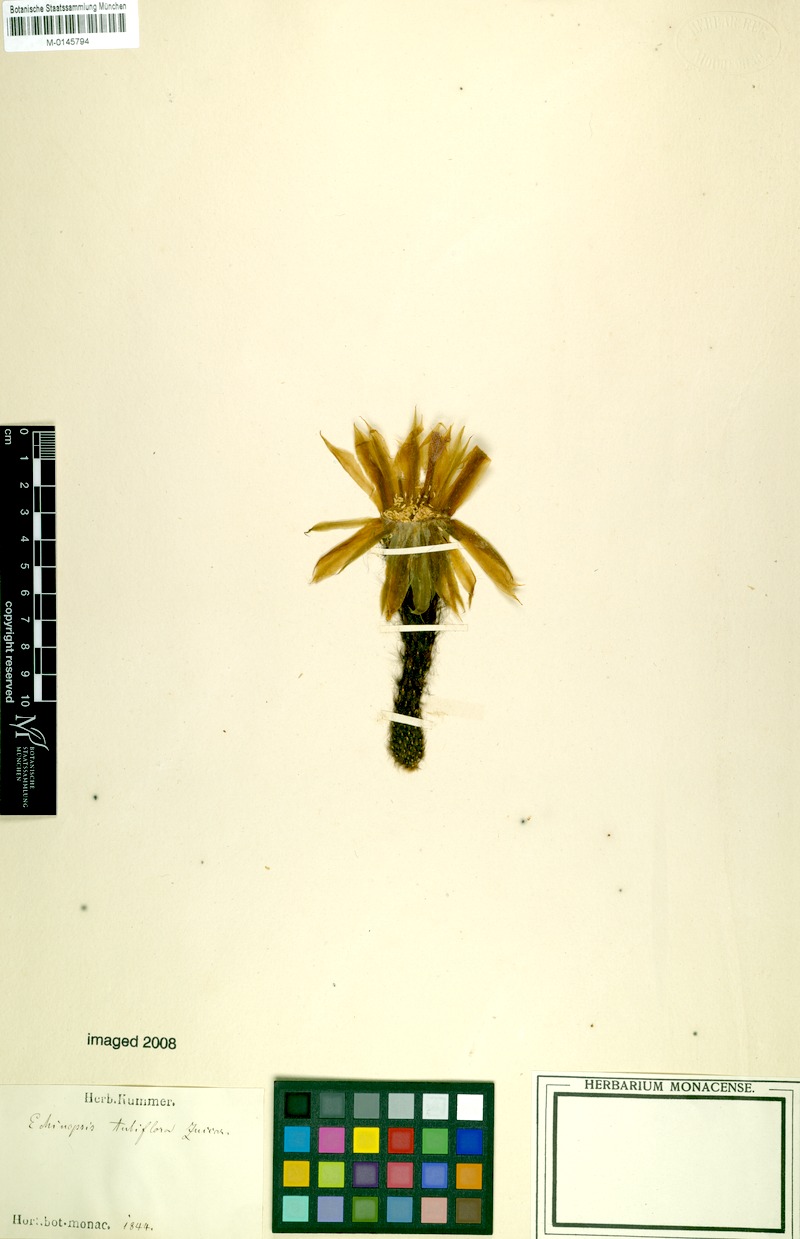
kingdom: Plantae
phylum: Tracheophyta
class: Magnoliopsida
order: Caryophyllales
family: Cactaceae
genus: Echinopsis
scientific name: Echinopsis oxygona
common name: Red easter-lily cactus
